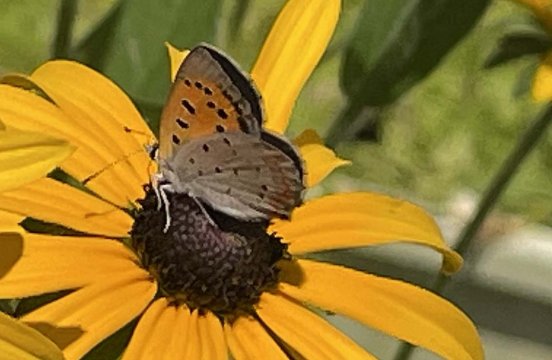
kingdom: Animalia
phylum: Arthropoda
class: Insecta
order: Lepidoptera
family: Lycaenidae
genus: Lycaena
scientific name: Lycaena phlaeas
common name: American Copper
